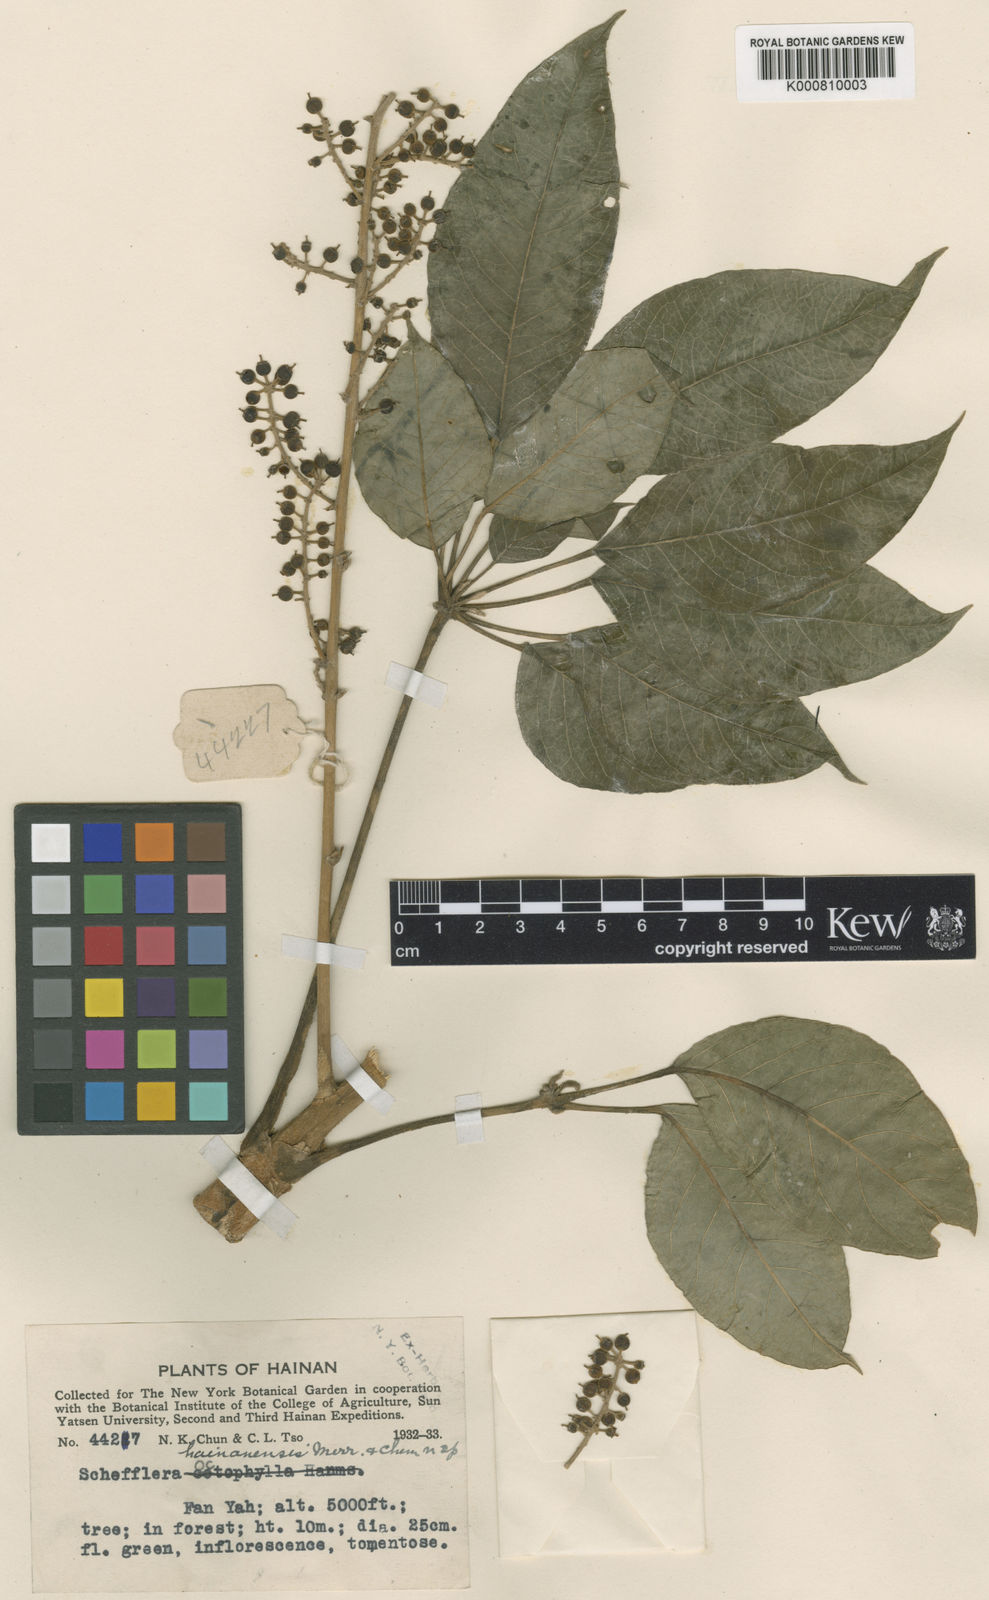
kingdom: Plantae
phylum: Tracheophyta
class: Magnoliopsida
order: Apiales
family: Araliaceae
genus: Heptapleurum
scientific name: Heptapleurum hainanense
